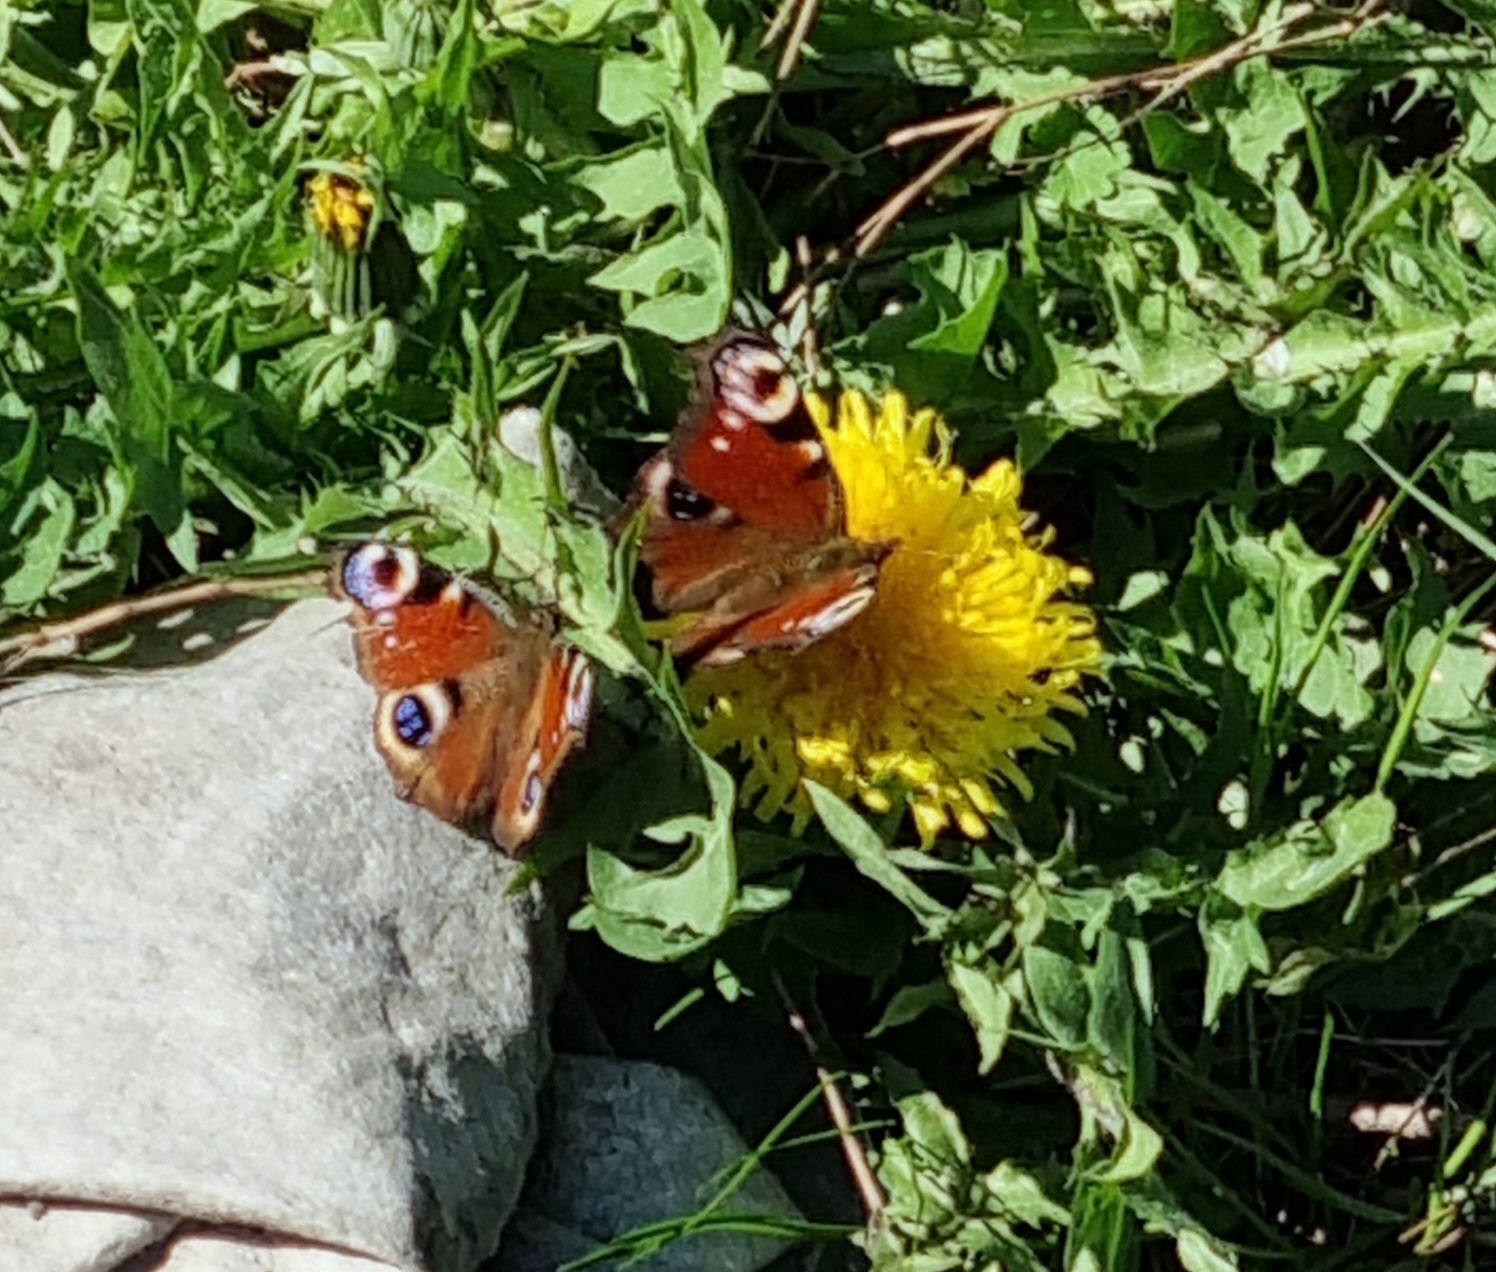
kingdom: Animalia
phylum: Arthropoda
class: Insecta
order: Lepidoptera
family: Nymphalidae
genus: Aglais
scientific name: Aglais io
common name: Dagpåfugleøje
